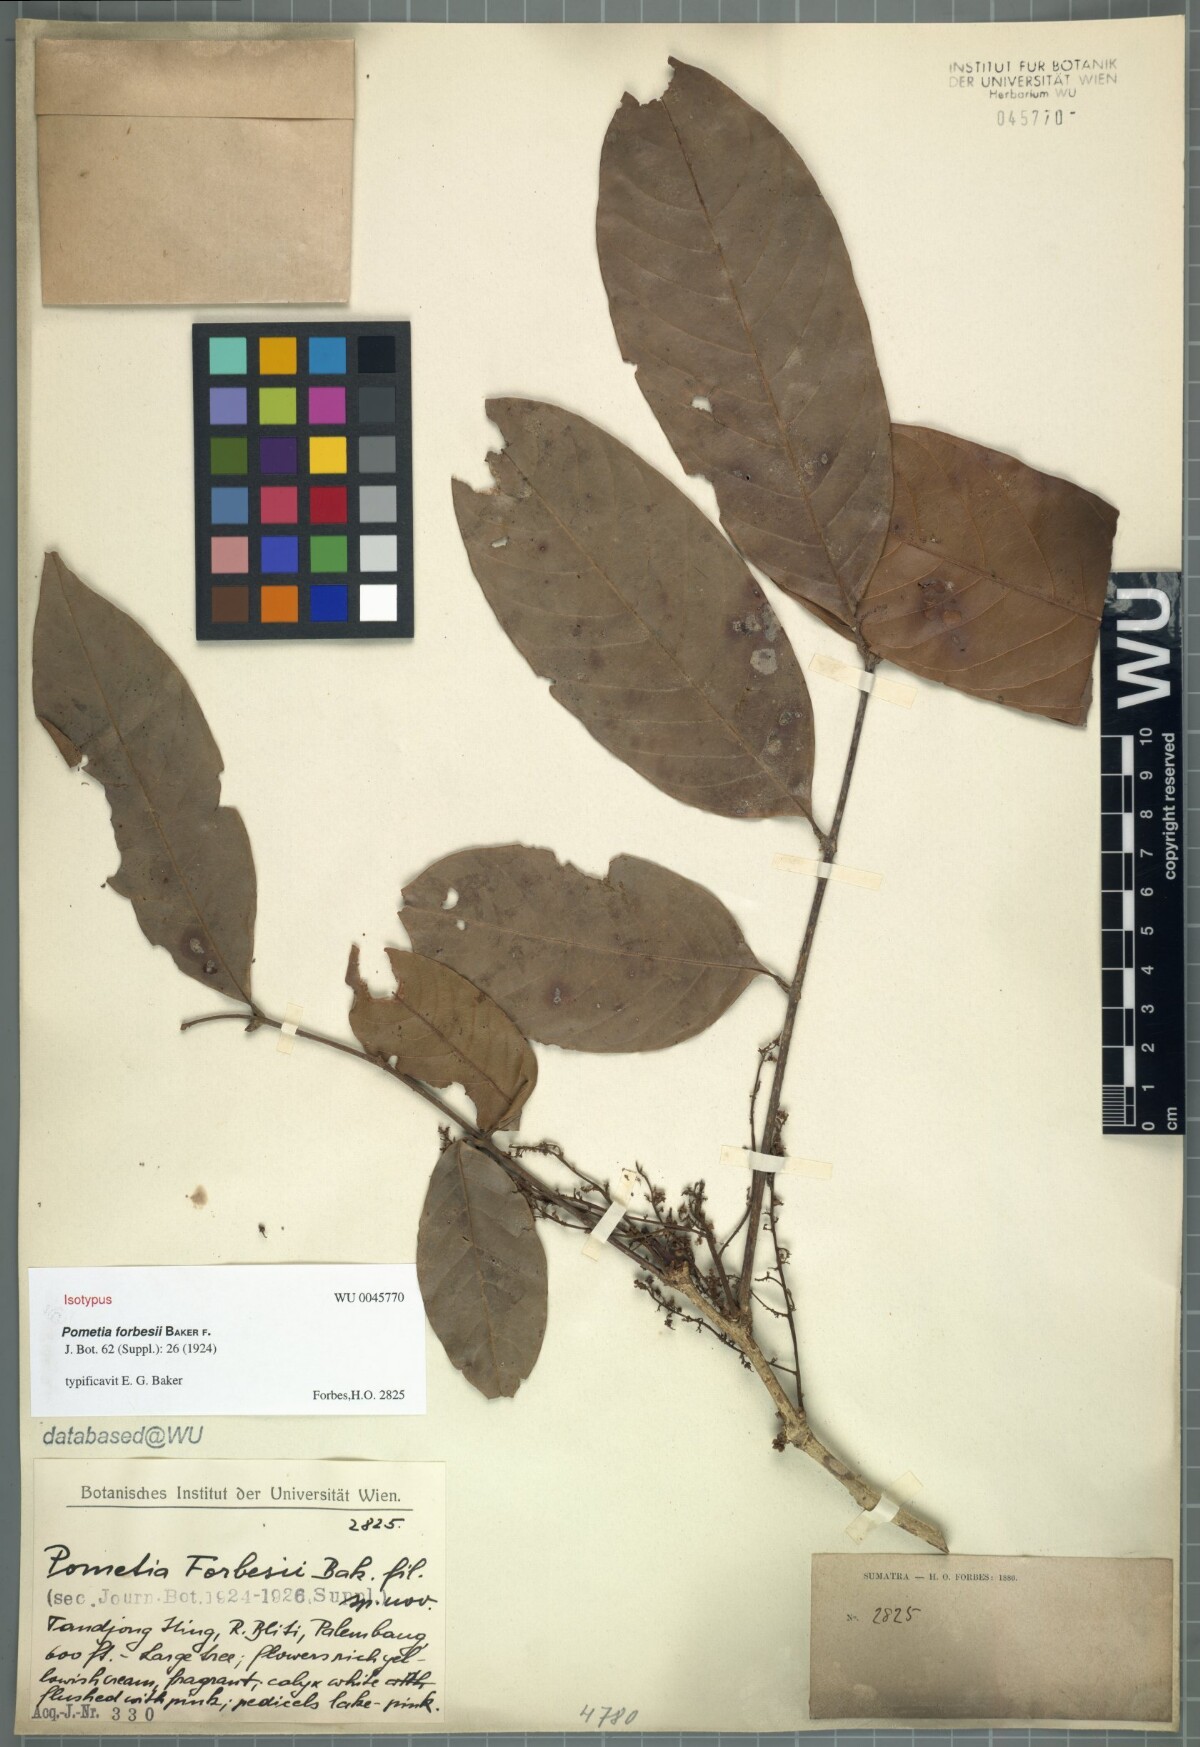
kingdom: Plantae
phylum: Tracheophyta
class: Magnoliopsida
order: Sapindales
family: Sapindaceae
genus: Paranephelium
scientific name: Paranephelium xestophyllum
